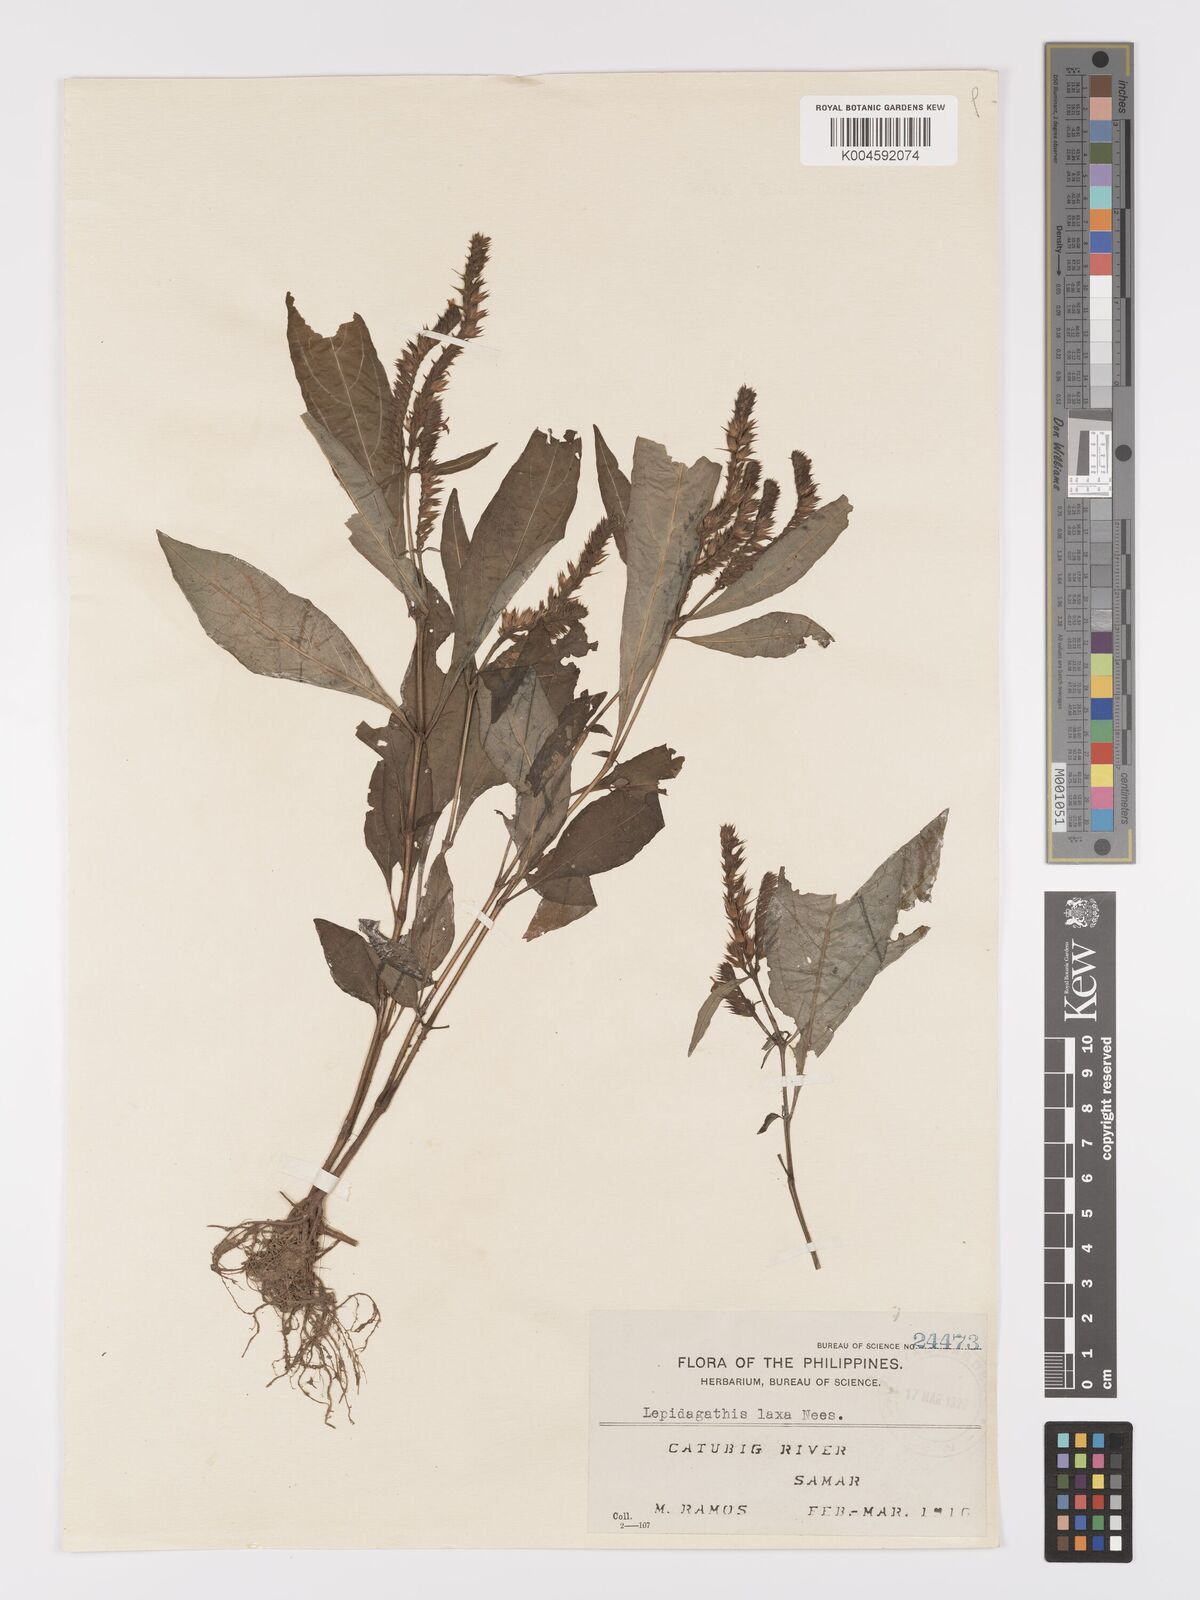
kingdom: Plantae
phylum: Tracheophyta
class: Magnoliopsida
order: Lamiales
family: Acanthaceae
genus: Lepidagathis
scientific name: Lepidagathis laxa
